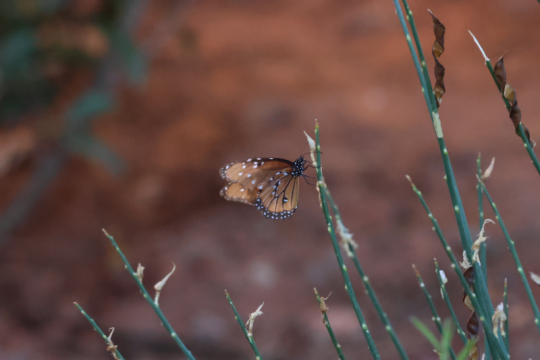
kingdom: Animalia
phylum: Arthropoda
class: Insecta
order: Lepidoptera
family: Nymphalidae
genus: Danaus
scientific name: Danaus gilippus
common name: Queen
